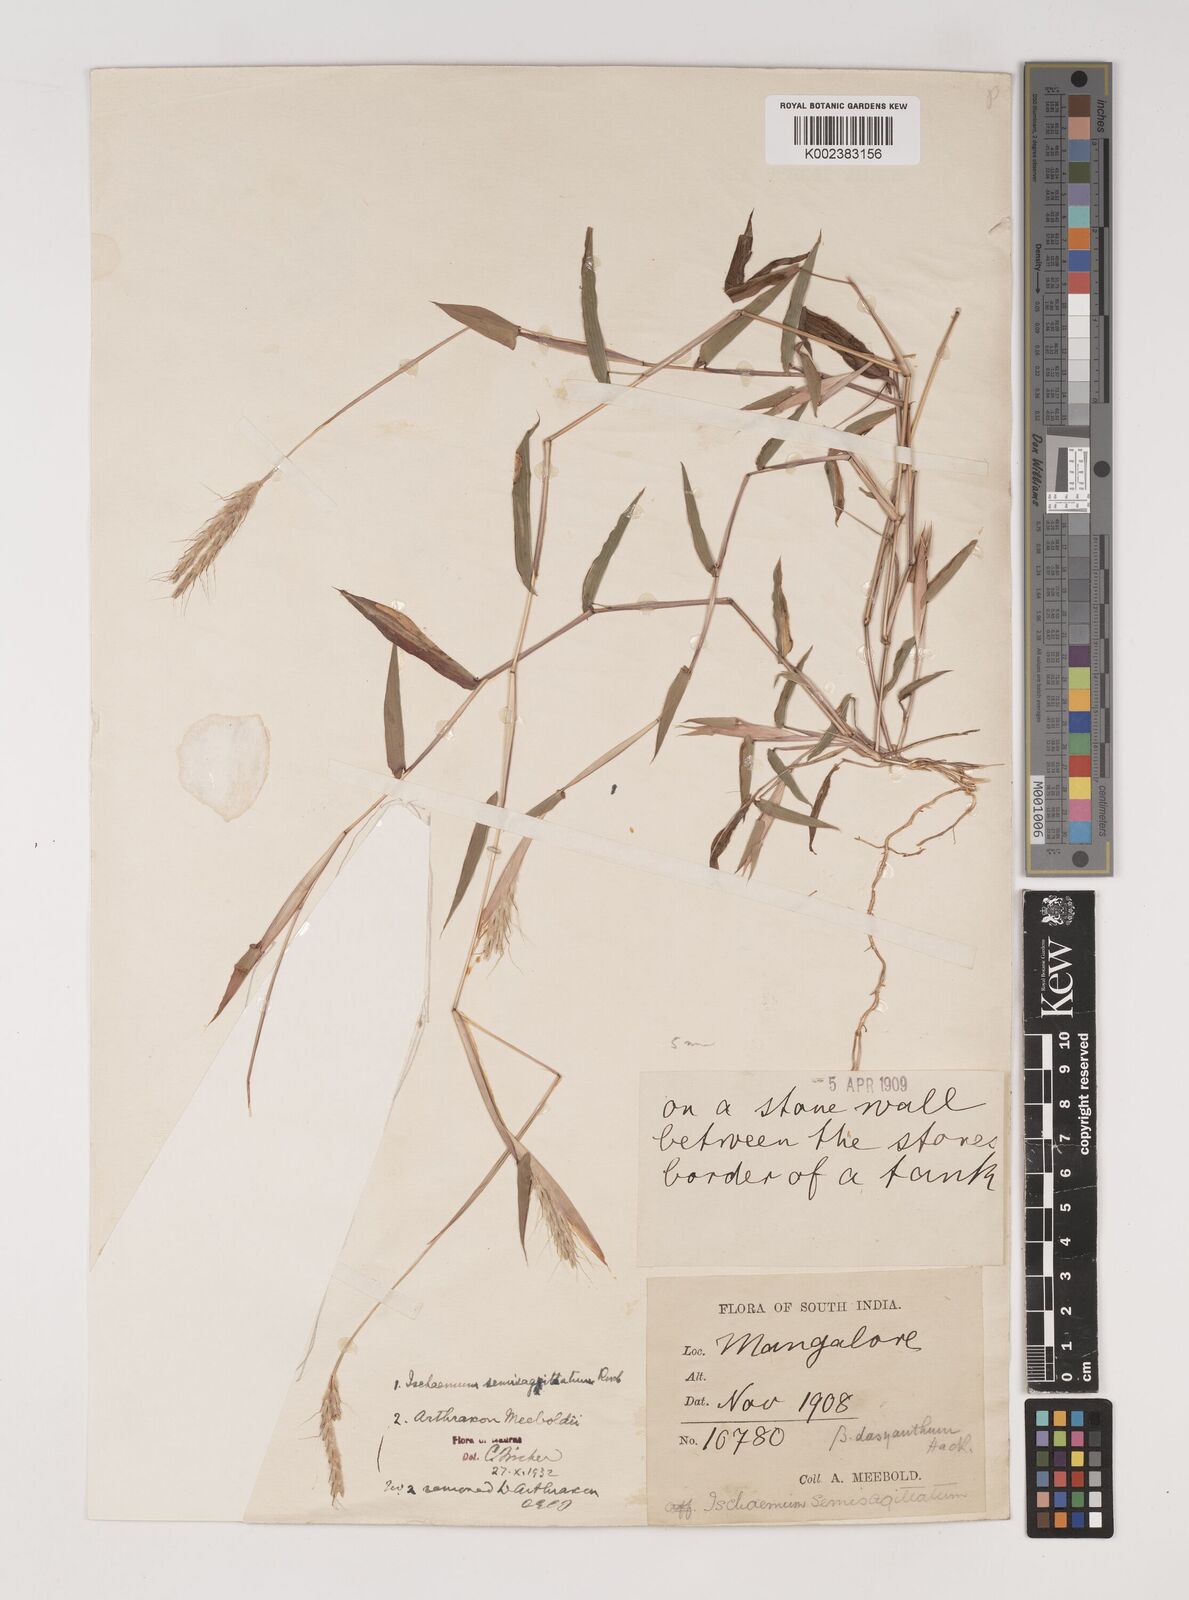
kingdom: Plantae
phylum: Tracheophyta
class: Liliopsida
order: Poales
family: Poaceae
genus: Ischaemum
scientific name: Ischaemum semisagittatum
